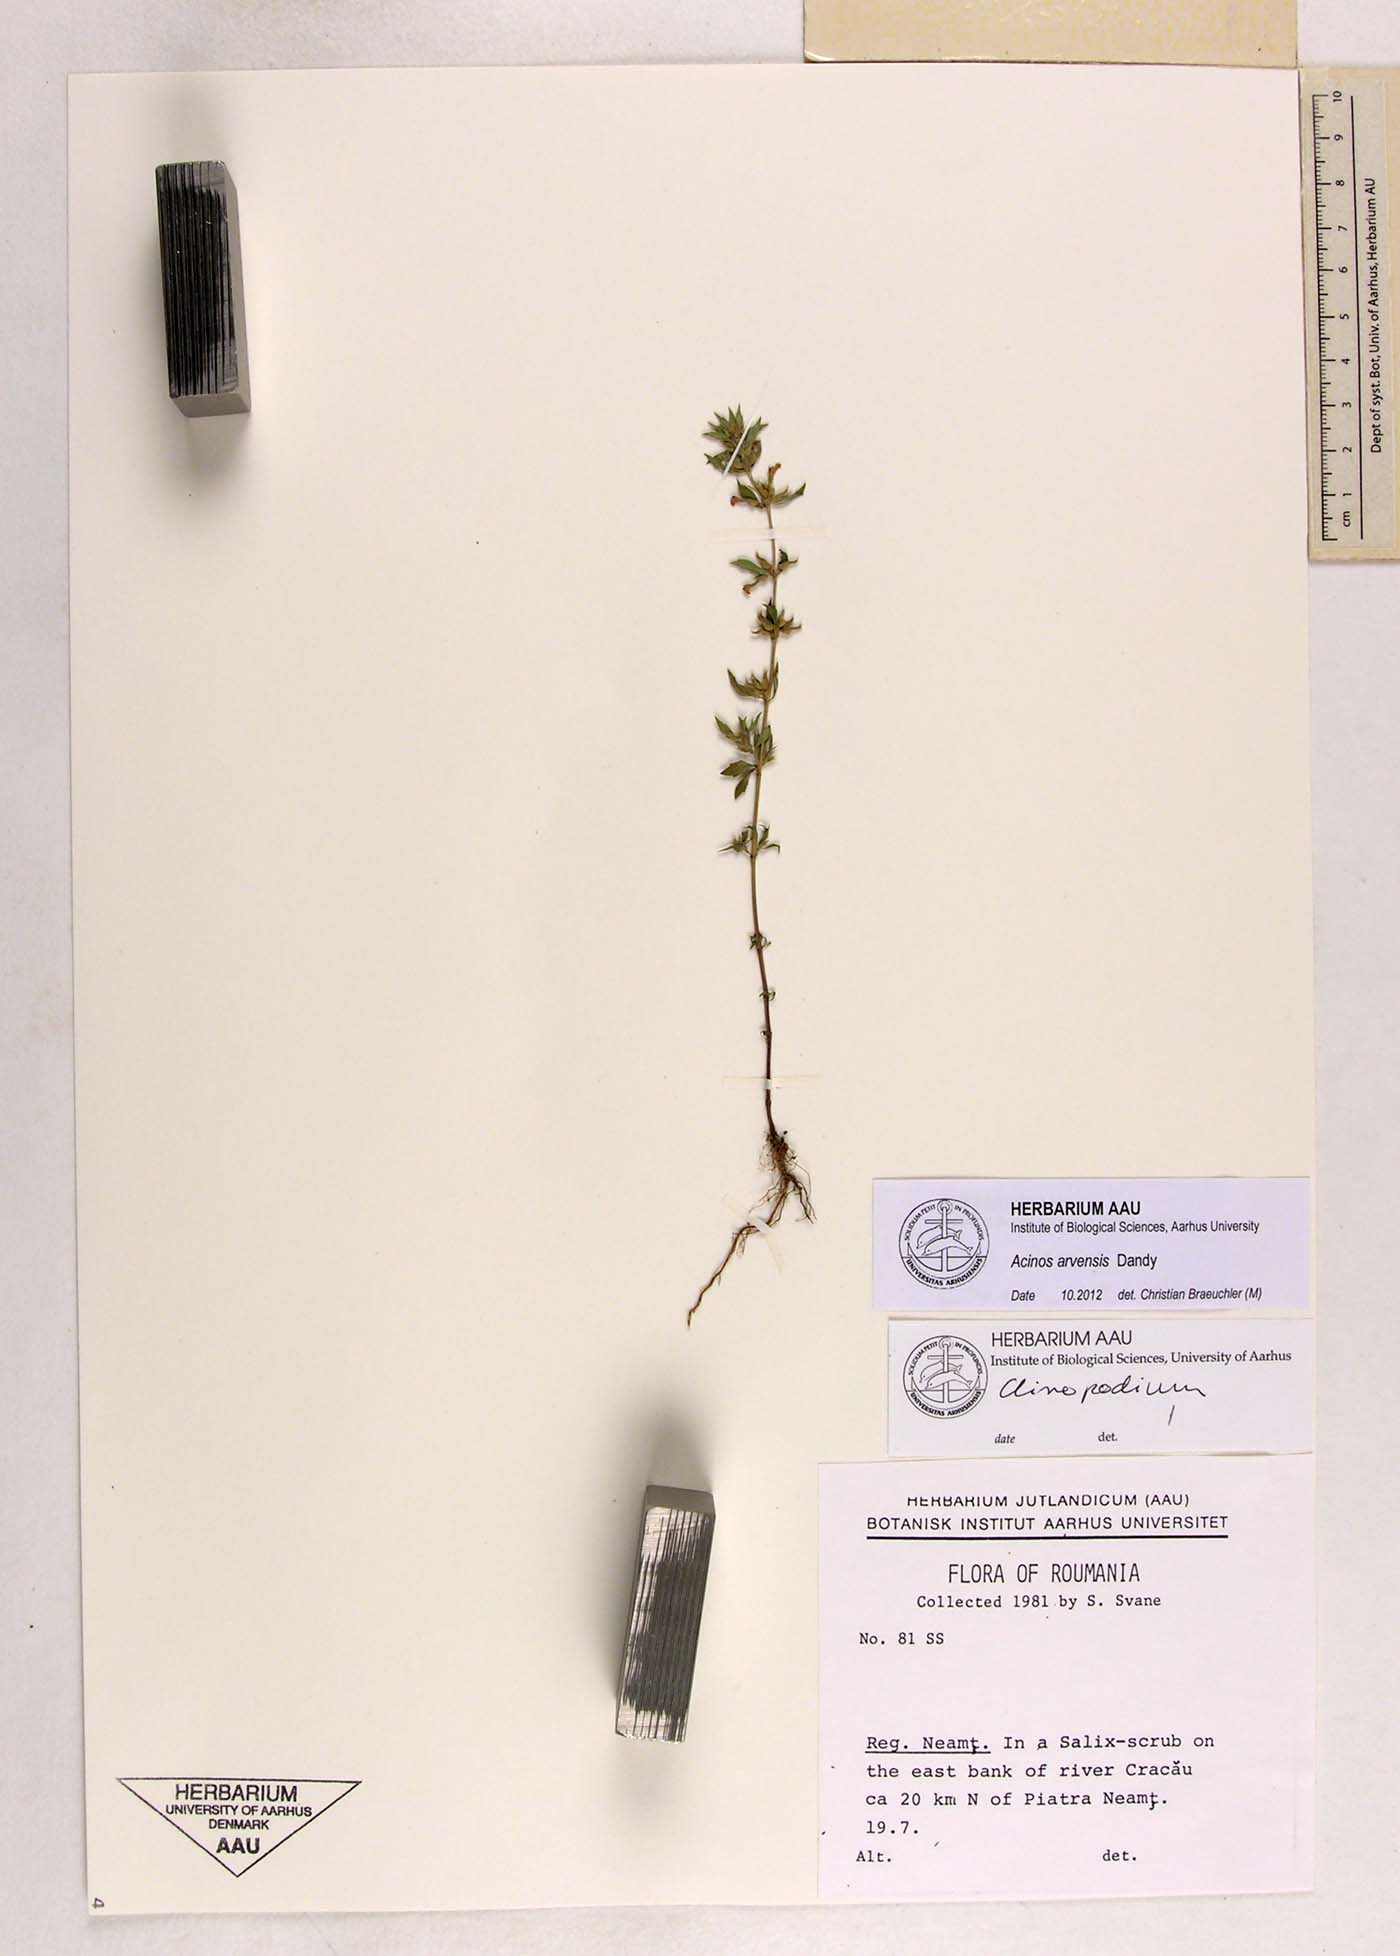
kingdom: Plantae
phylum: Tracheophyta
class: Magnoliopsida
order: Lamiales
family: Lamiaceae
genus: Clinopodium
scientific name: Clinopodium acinos
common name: Basil thyme
